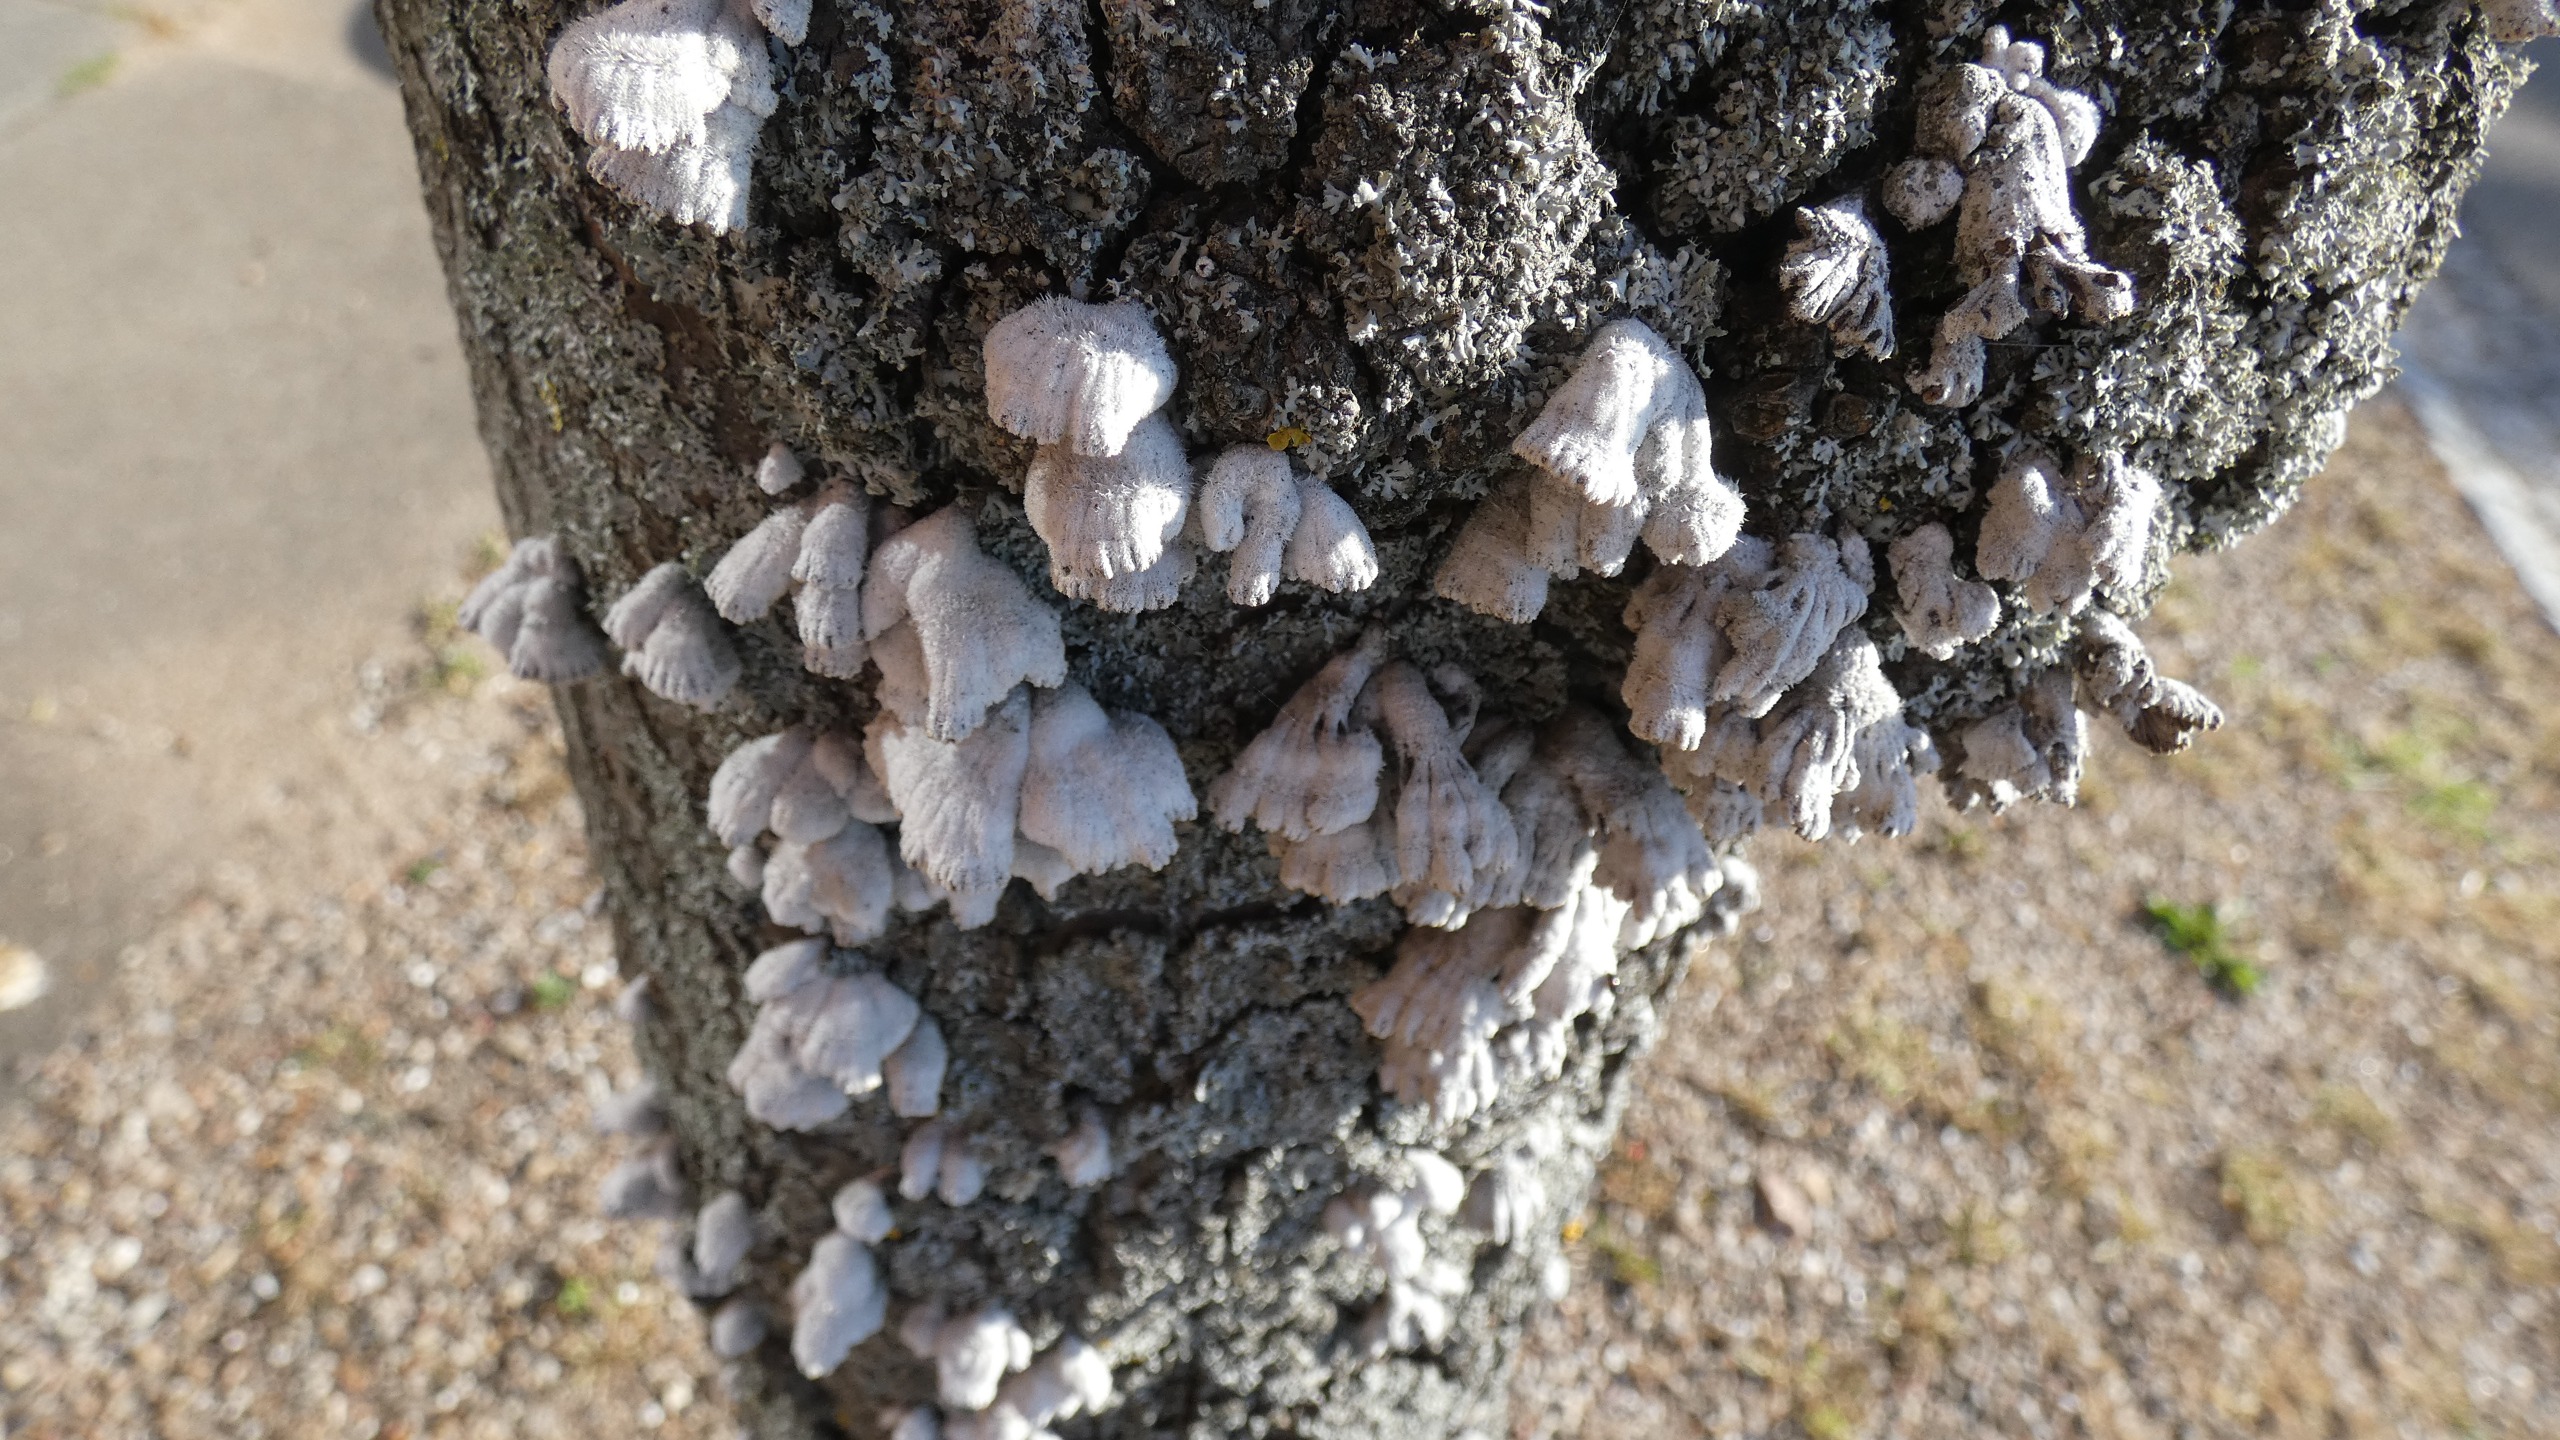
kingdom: Fungi
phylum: Basidiomycota
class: Agaricomycetes
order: Agaricales
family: Schizophyllaceae
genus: Schizophyllum
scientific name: Schizophyllum commune
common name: Kløvblad
